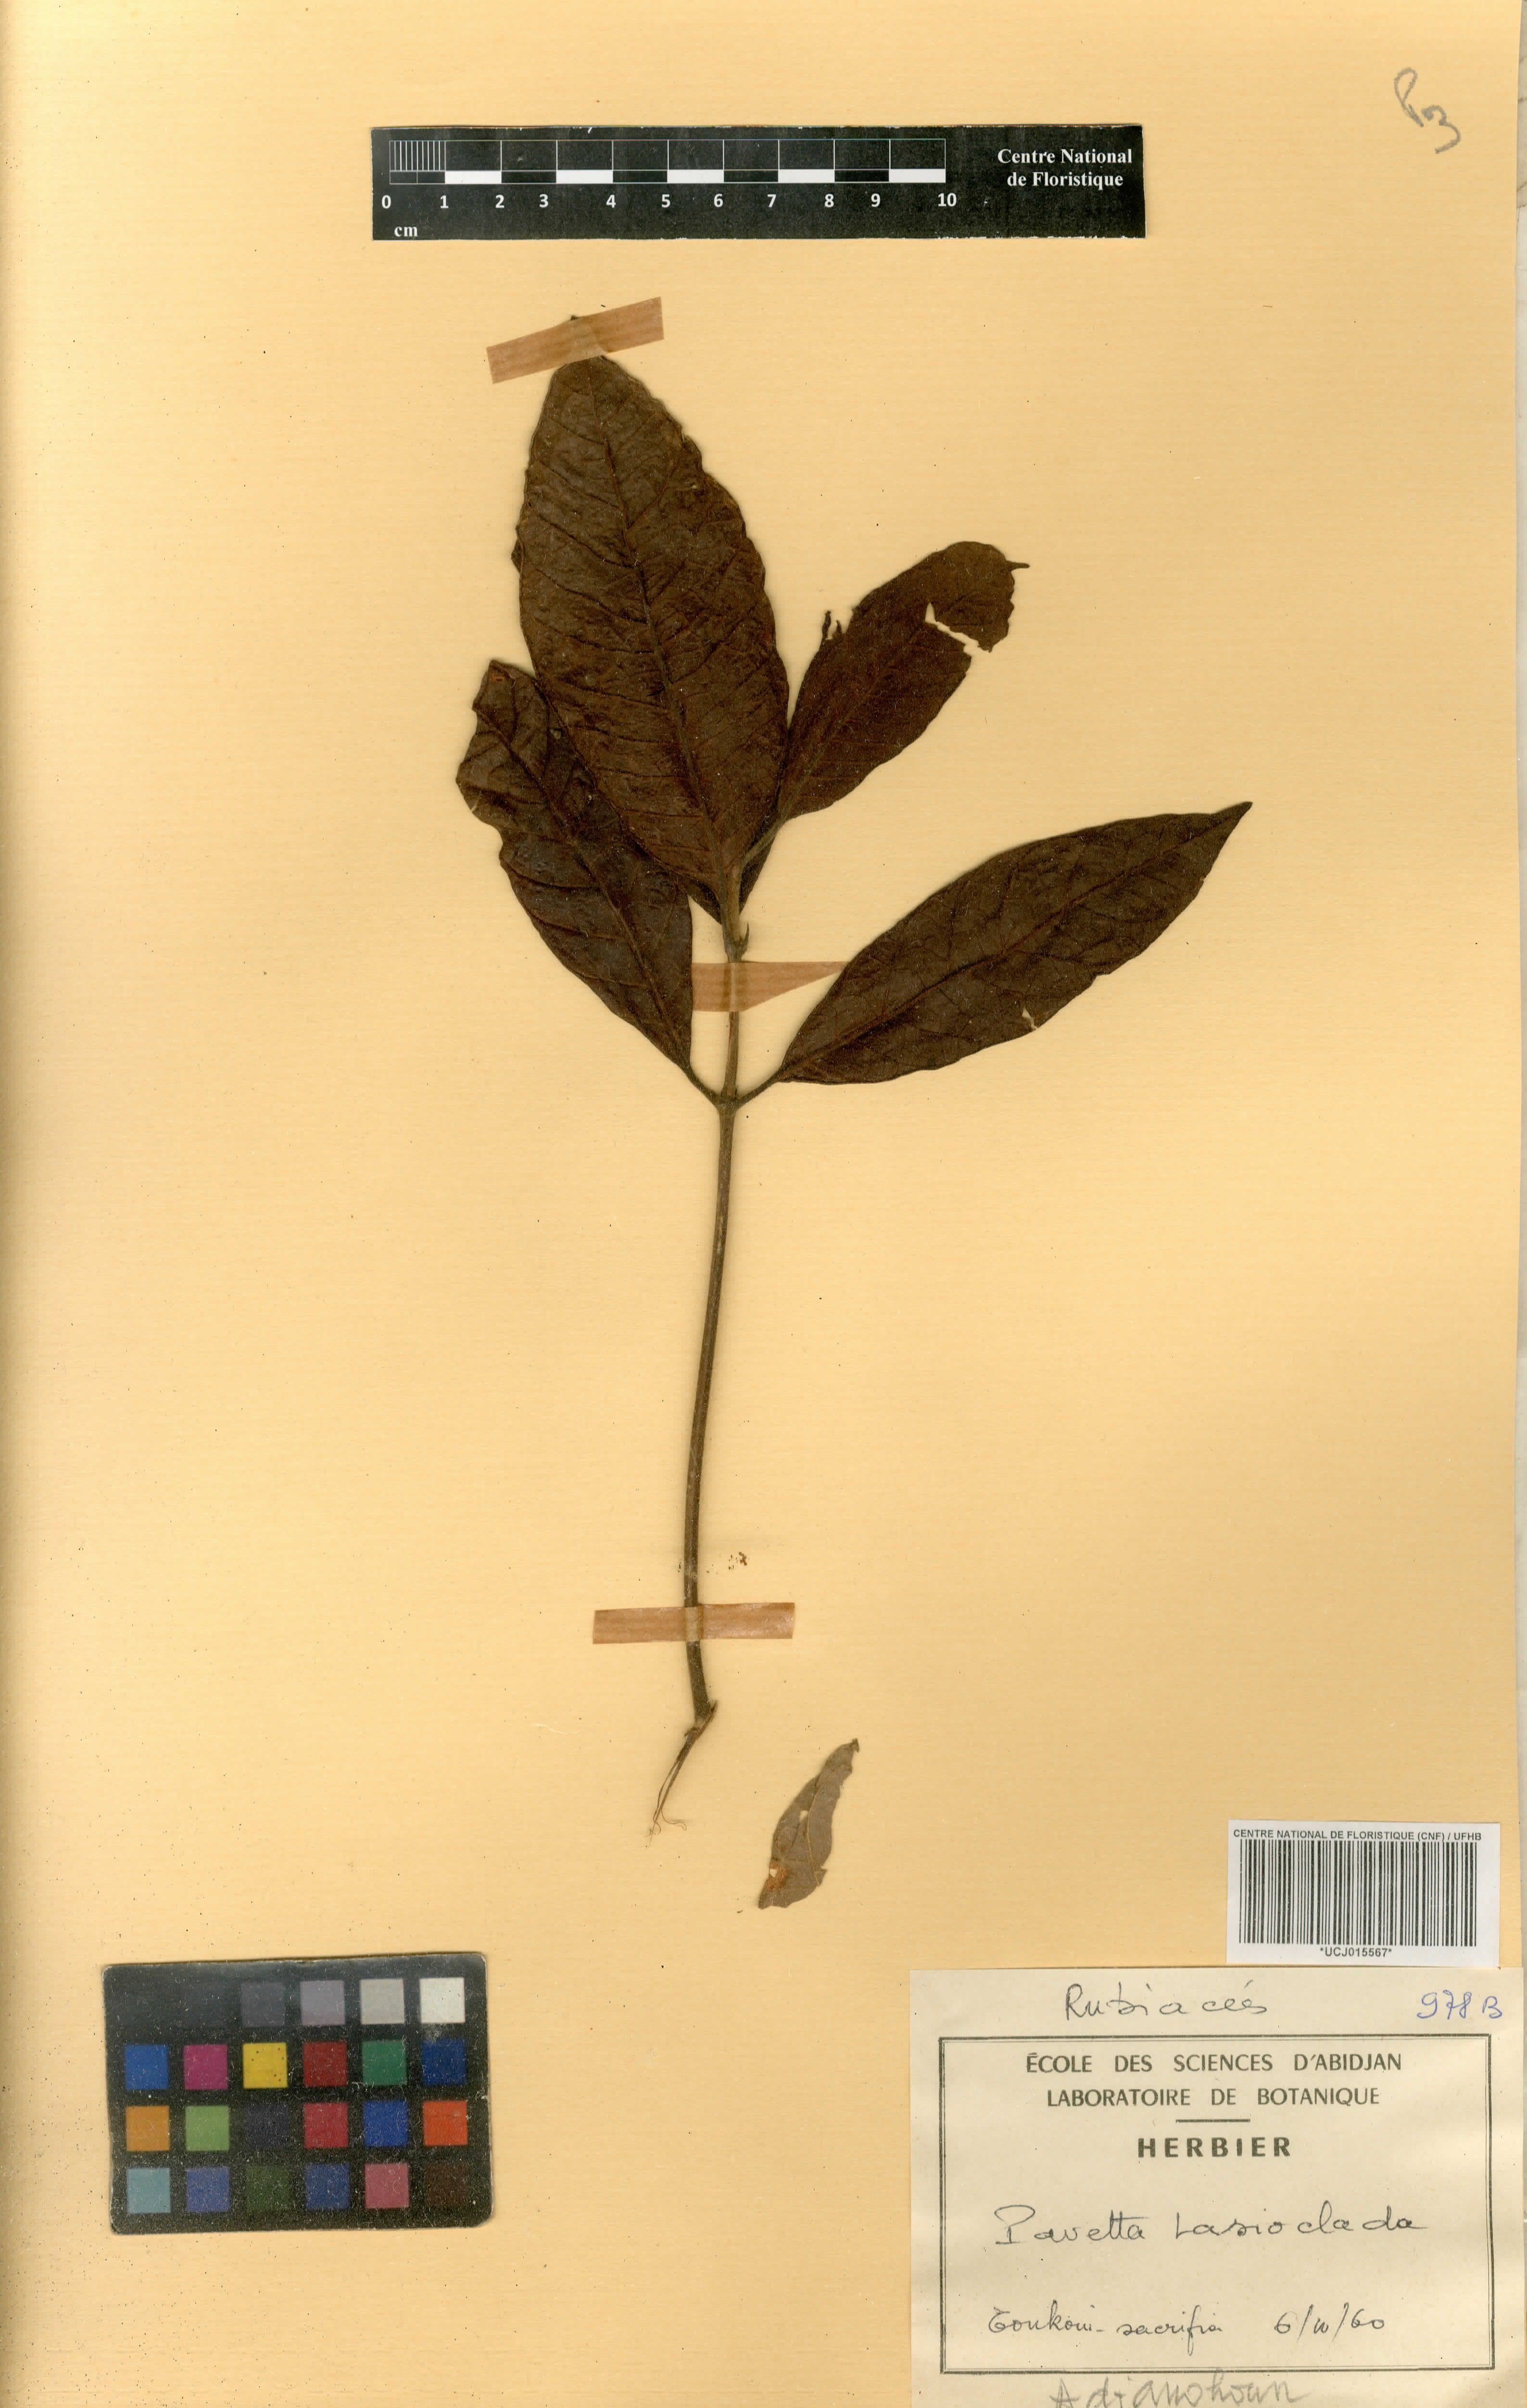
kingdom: Plantae
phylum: Tracheophyta
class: Magnoliopsida
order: Gentianales
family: Rubiaceae
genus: Pavetta
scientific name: Pavetta lasioclada
